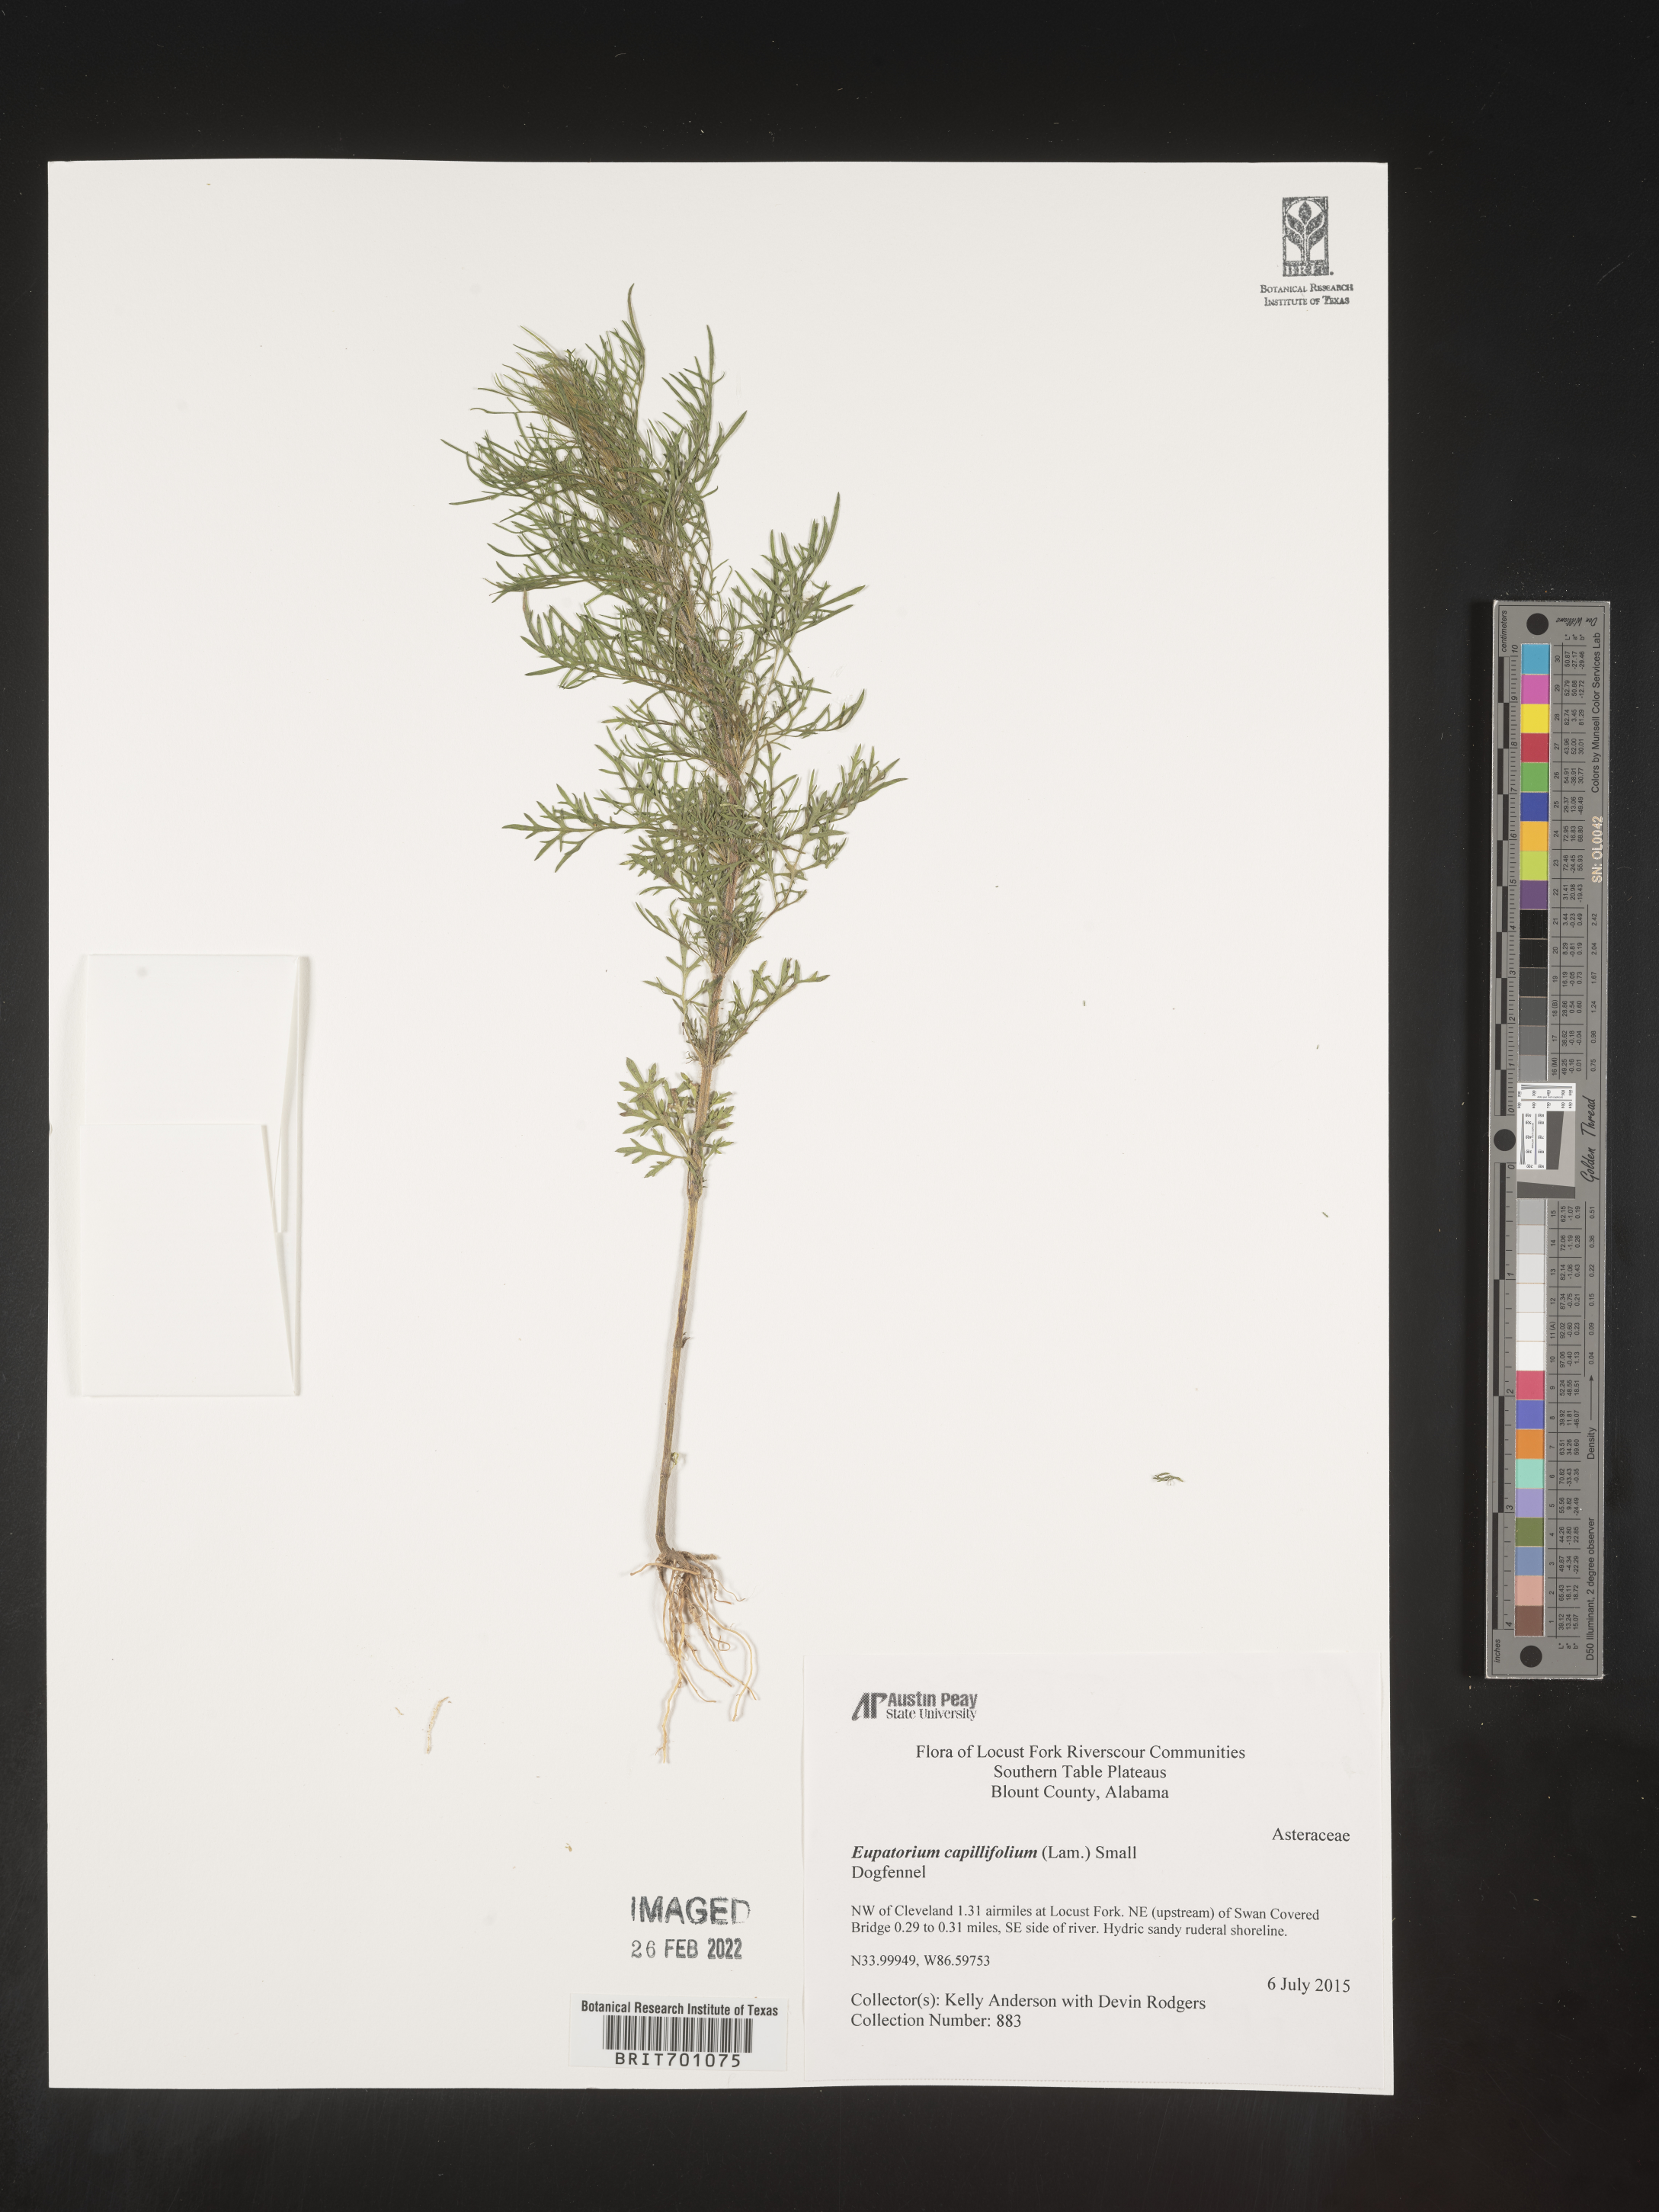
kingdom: Plantae
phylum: Tracheophyta
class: Magnoliopsida
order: Asterales
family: Asteraceae
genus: Eupatorium
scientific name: Eupatorium capillifolium
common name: Dog-fennel
